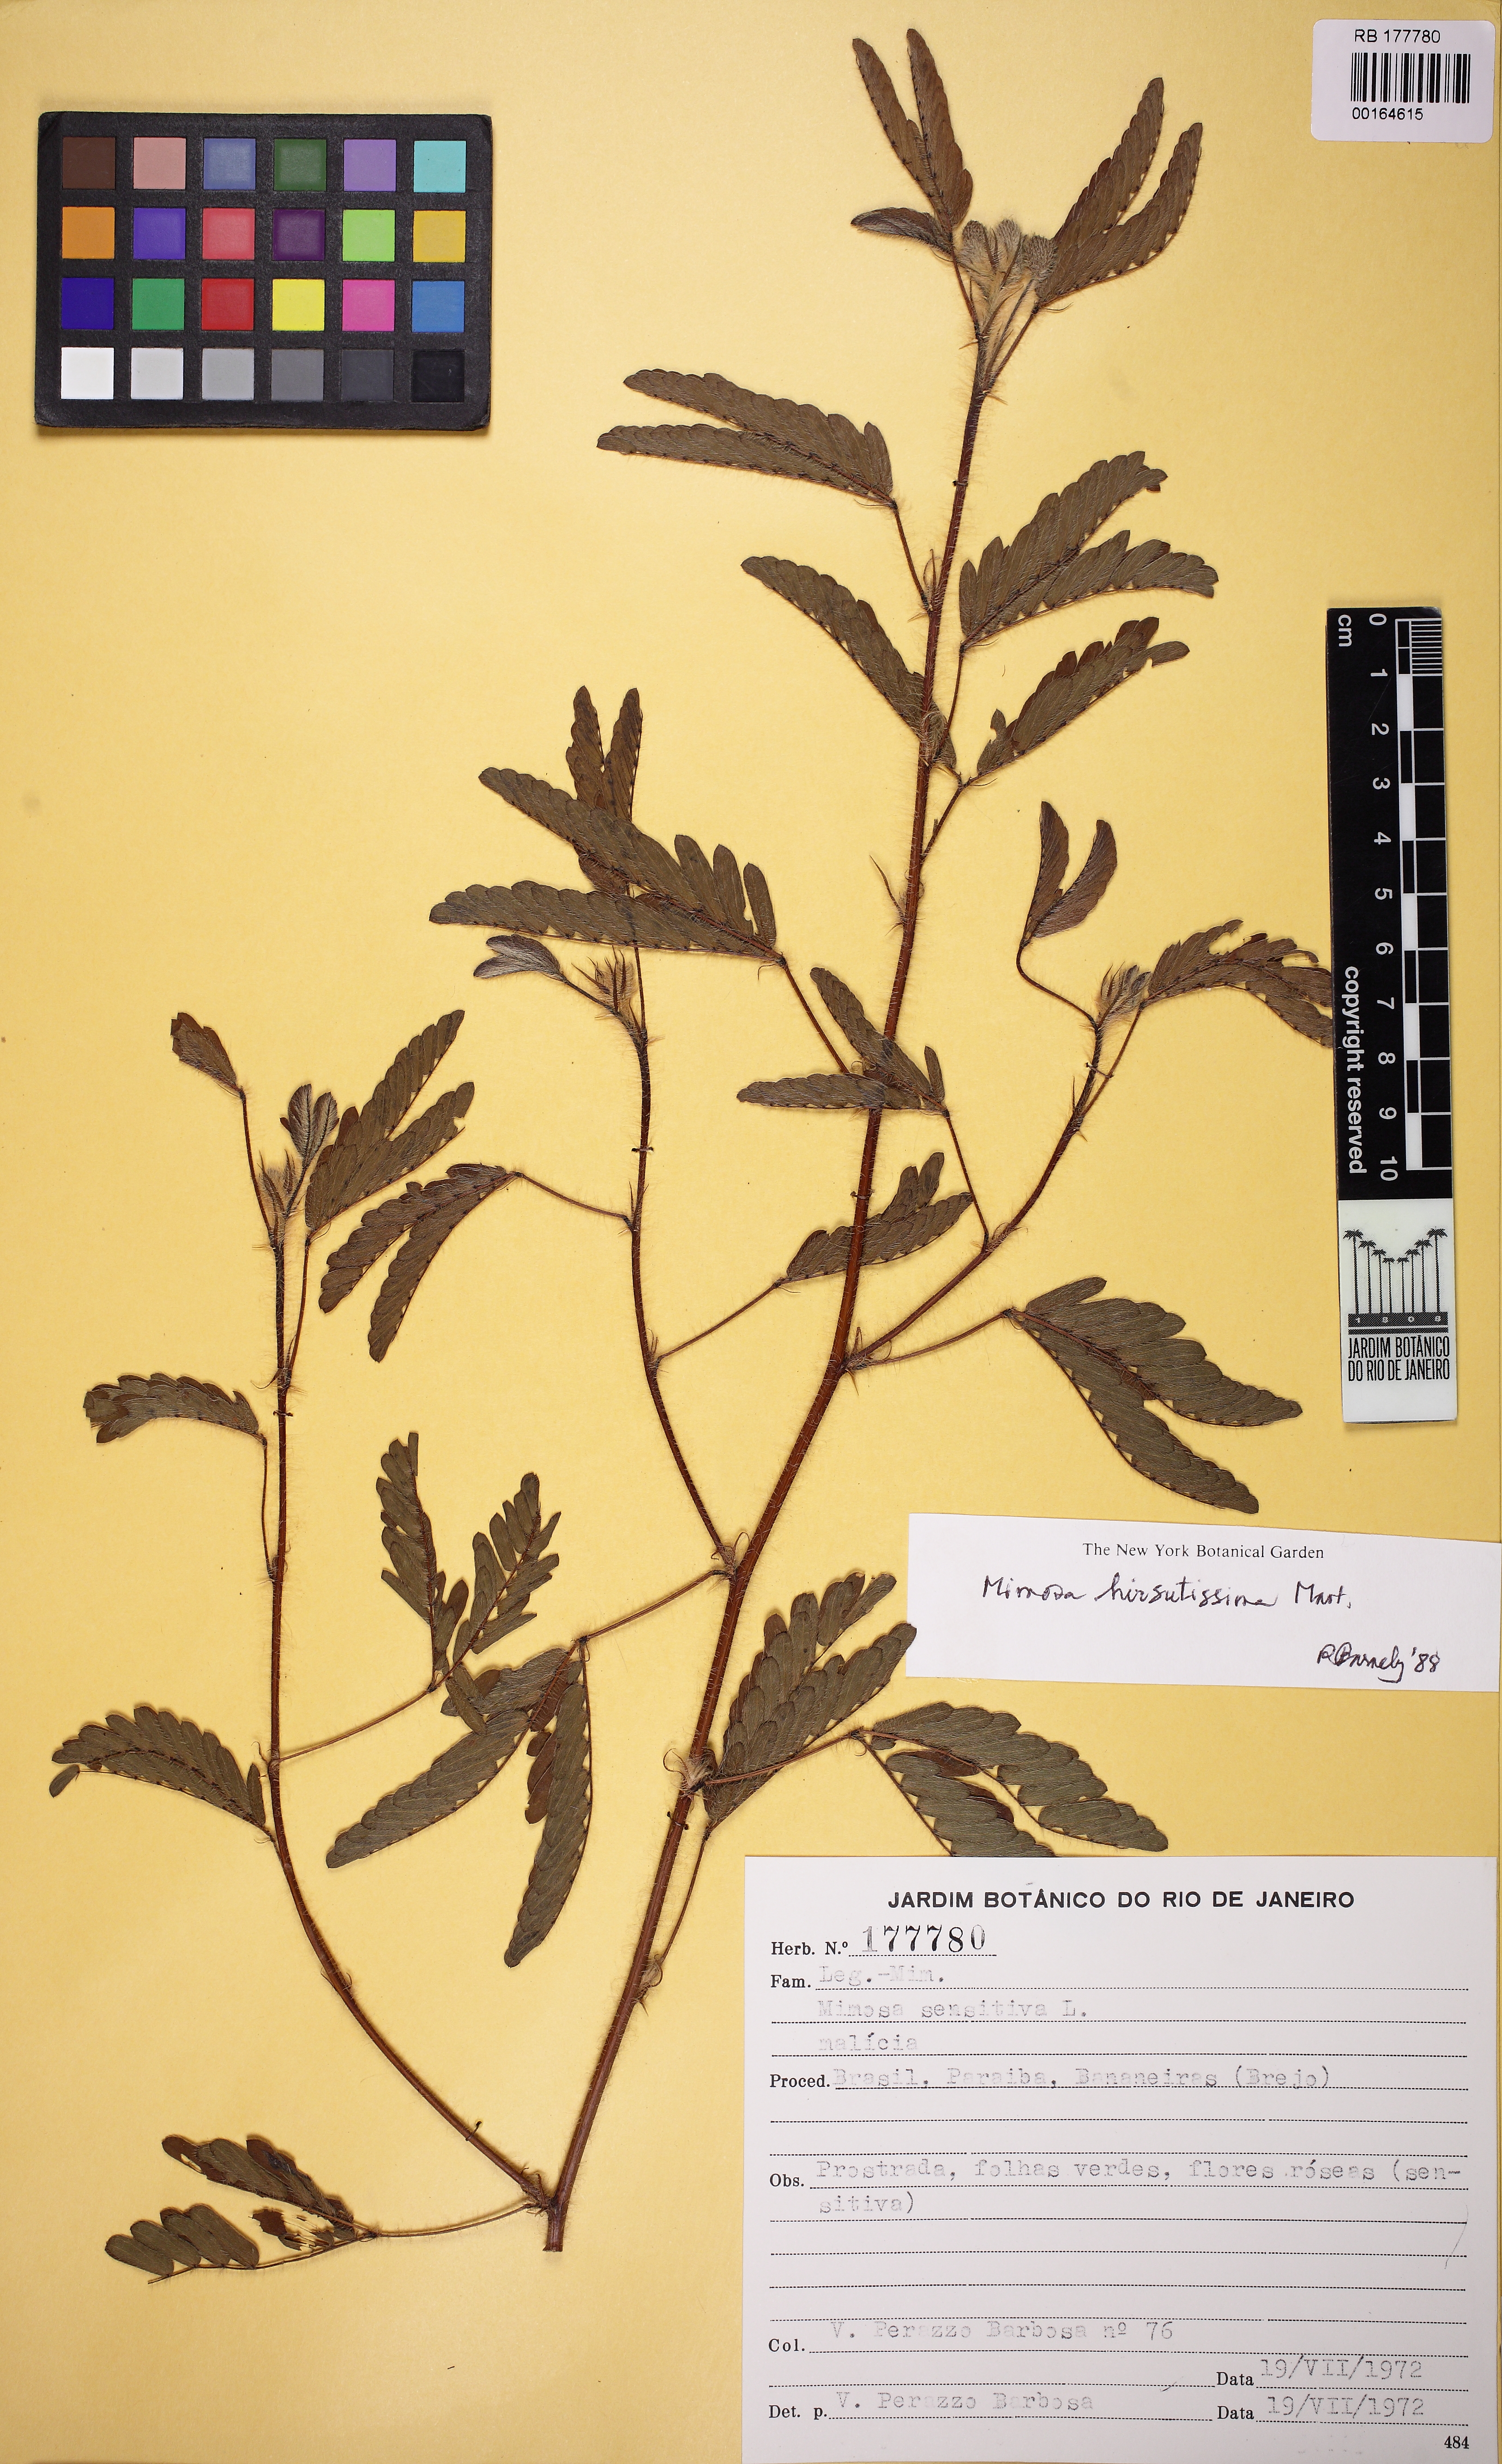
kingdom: Plantae
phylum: Tracheophyta
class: Magnoliopsida
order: Fabales
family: Fabaceae
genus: Mimosa
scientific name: Mimosa hirsutissima
